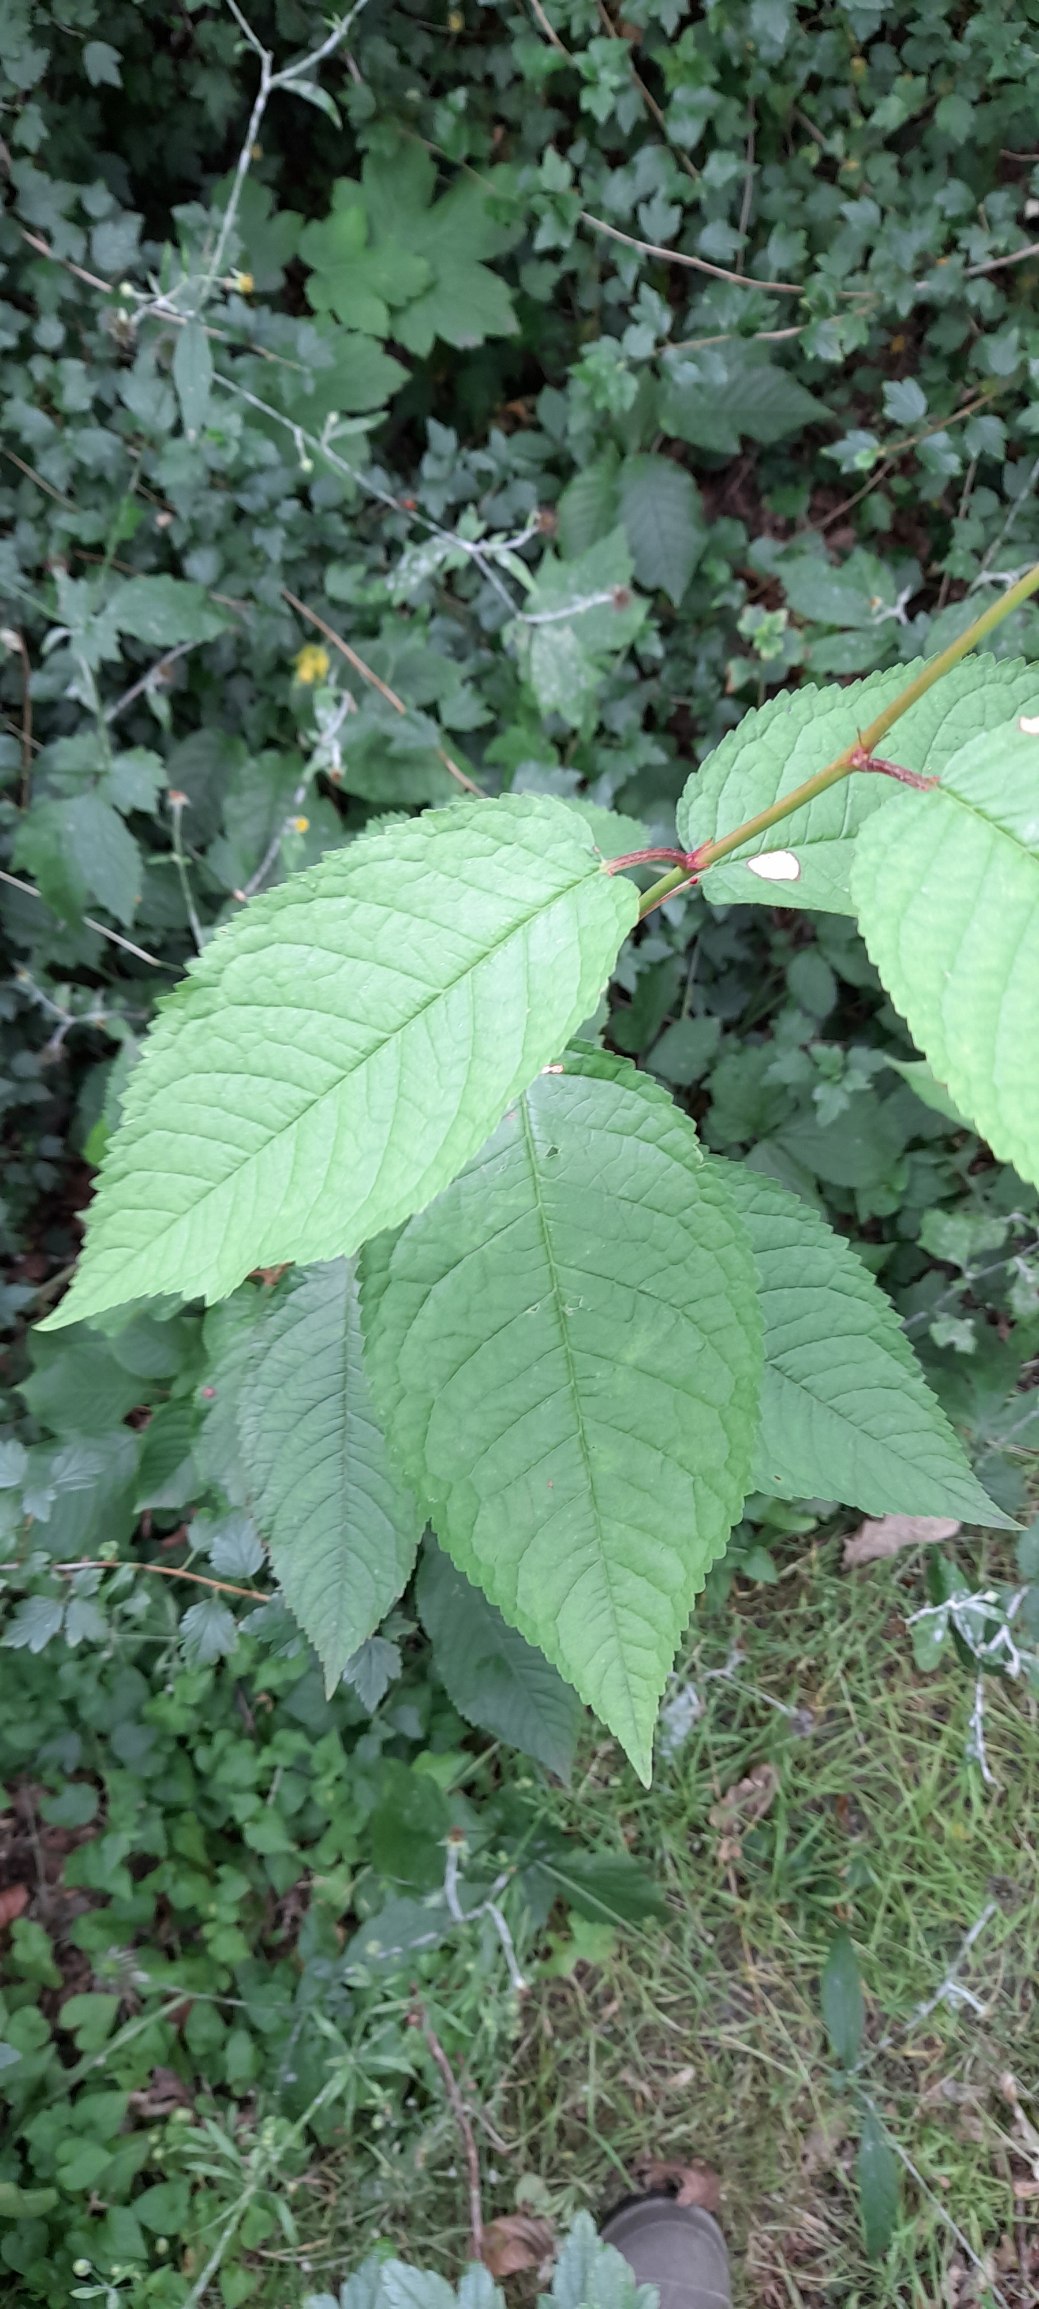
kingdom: Plantae
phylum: Tracheophyta
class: Magnoliopsida
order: Rosales
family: Rosaceae
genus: Prunus
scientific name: Prunus avium
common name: Fugle-kirsebær
